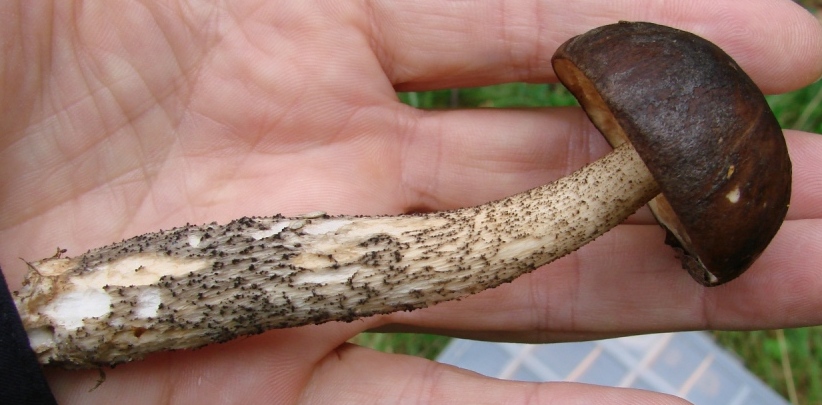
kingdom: Fungi
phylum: Basidiomycota
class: Agaricomycetes
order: Boletales
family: Boletaceae
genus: Leccinum
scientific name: Leccinum scabrum
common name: brun skælrørhat
